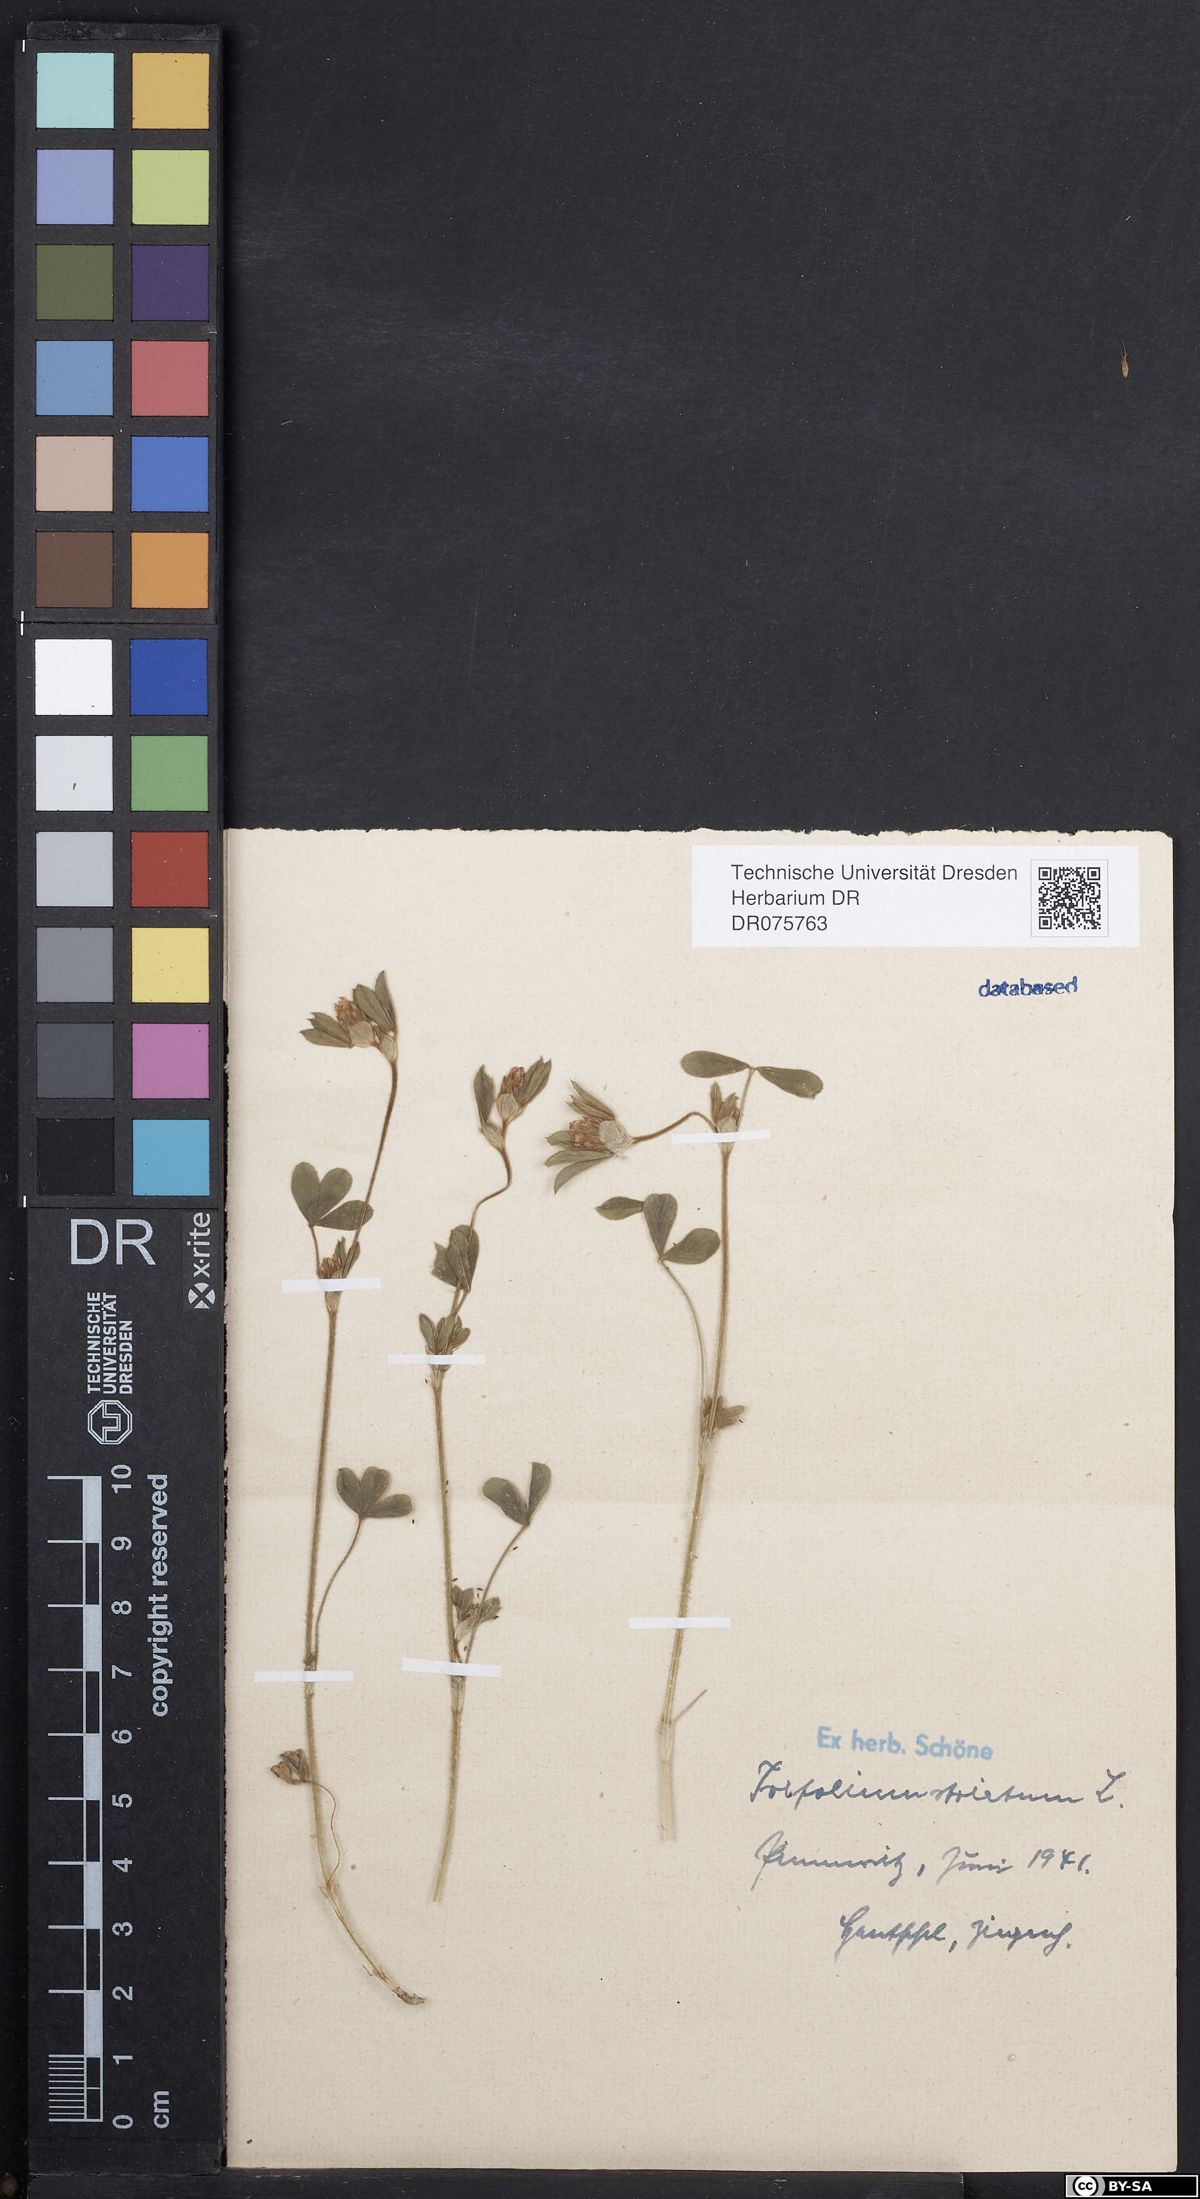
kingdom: Plantae
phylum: Tracheophyta
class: Magnoliopsida
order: Fabales
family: Fabaceae
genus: Trifolium
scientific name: Trifolium striatum
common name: Knotted clover
